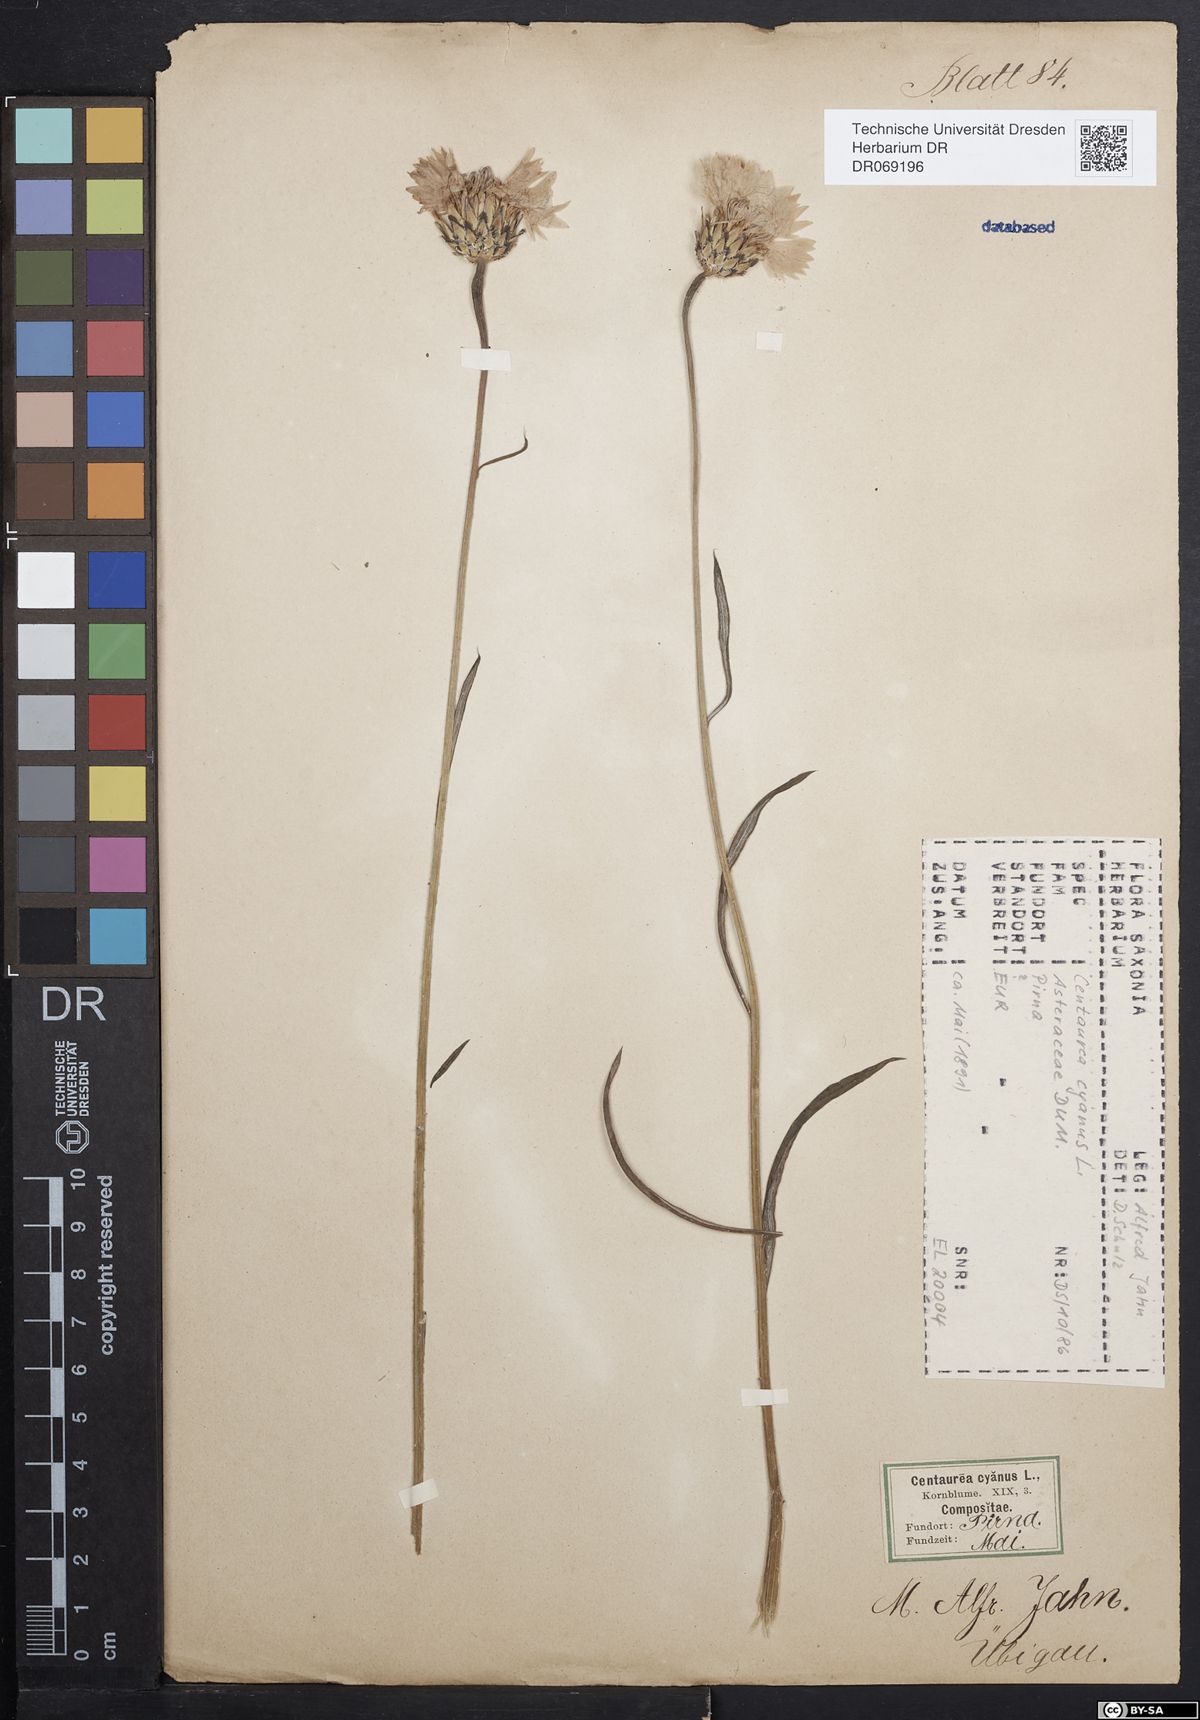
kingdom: Plantae
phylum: Tracheophyta
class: Magnoliopsida
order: Asterales
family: Asteraceae
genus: Centaurea
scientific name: Centaurea cyanus
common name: Cornflower
